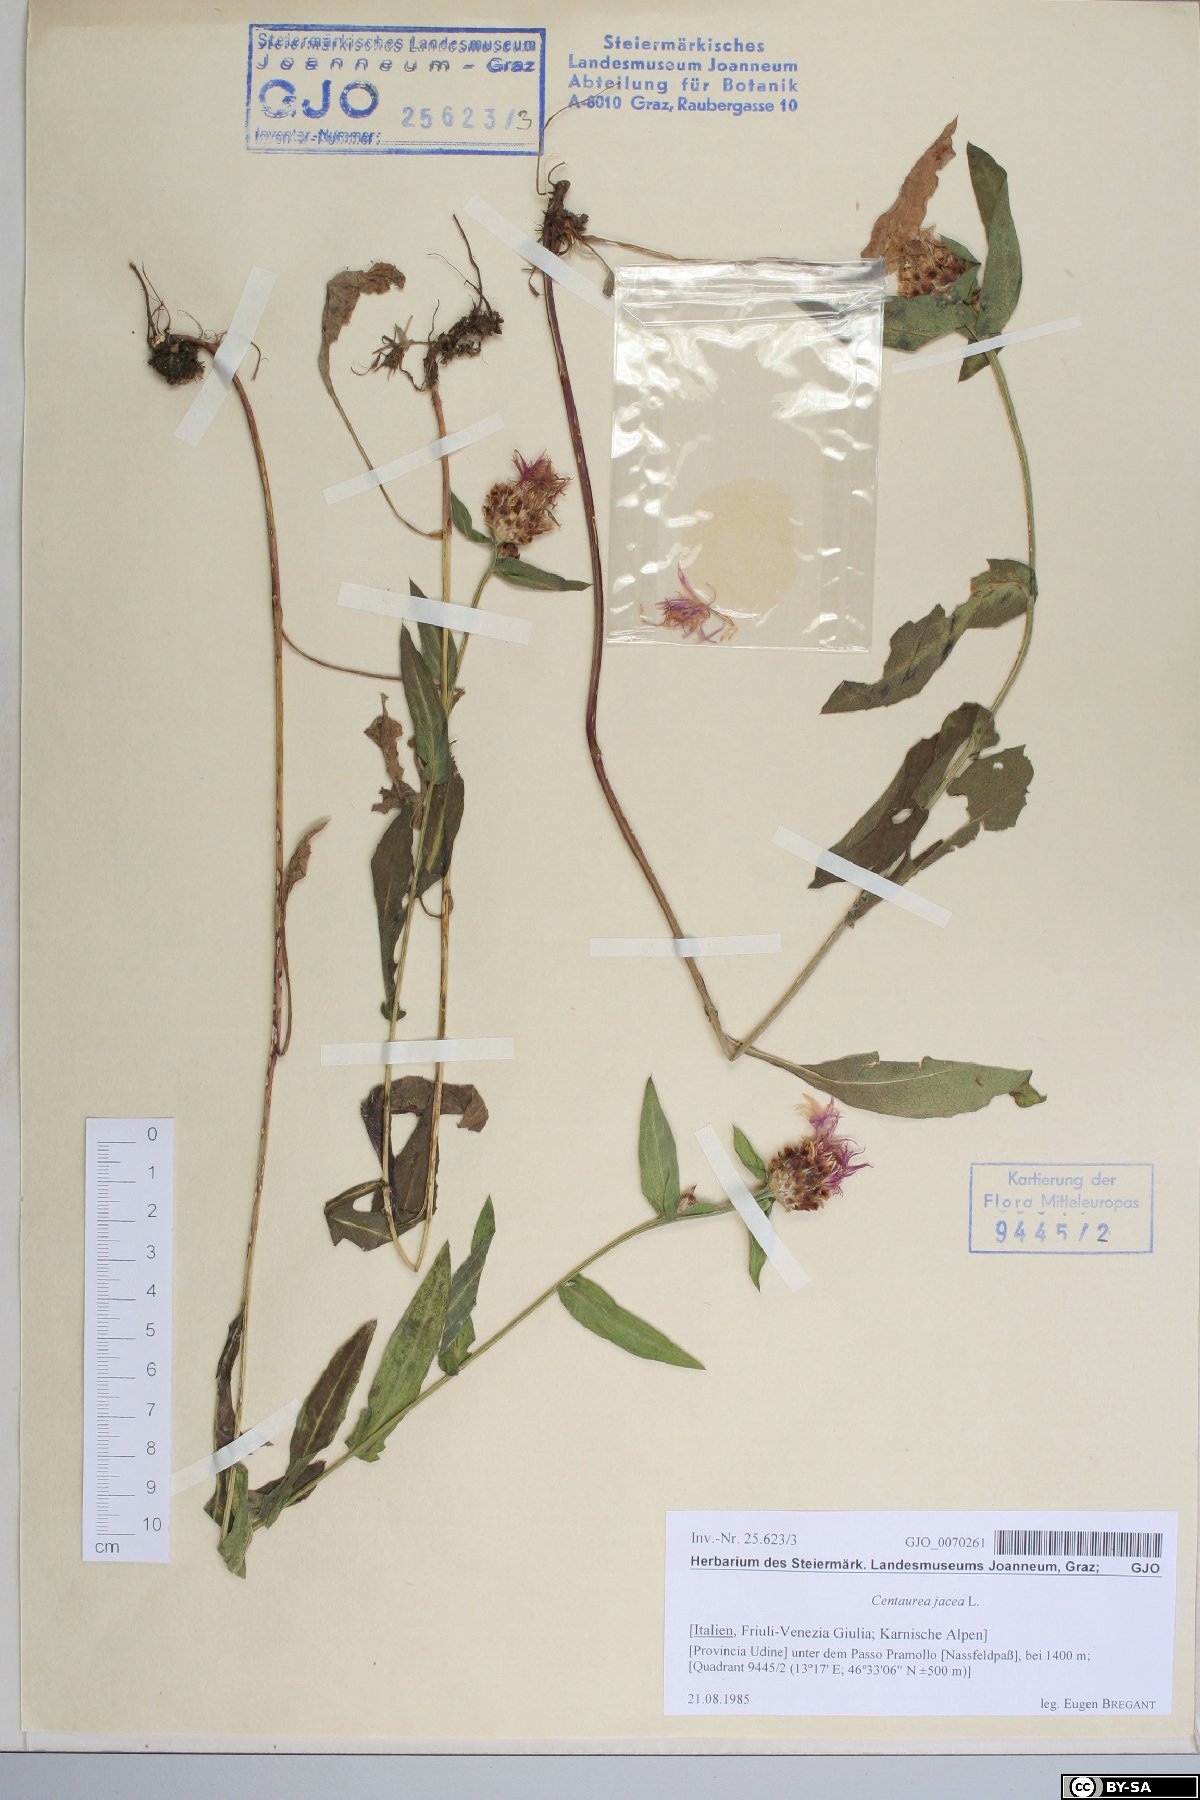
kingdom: Plantae
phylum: Tracheophyta
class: Magnoliopsida
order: Asterales
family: Asteraceae
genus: Centaurea
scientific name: Centaurea jacea
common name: Brown knapweed
